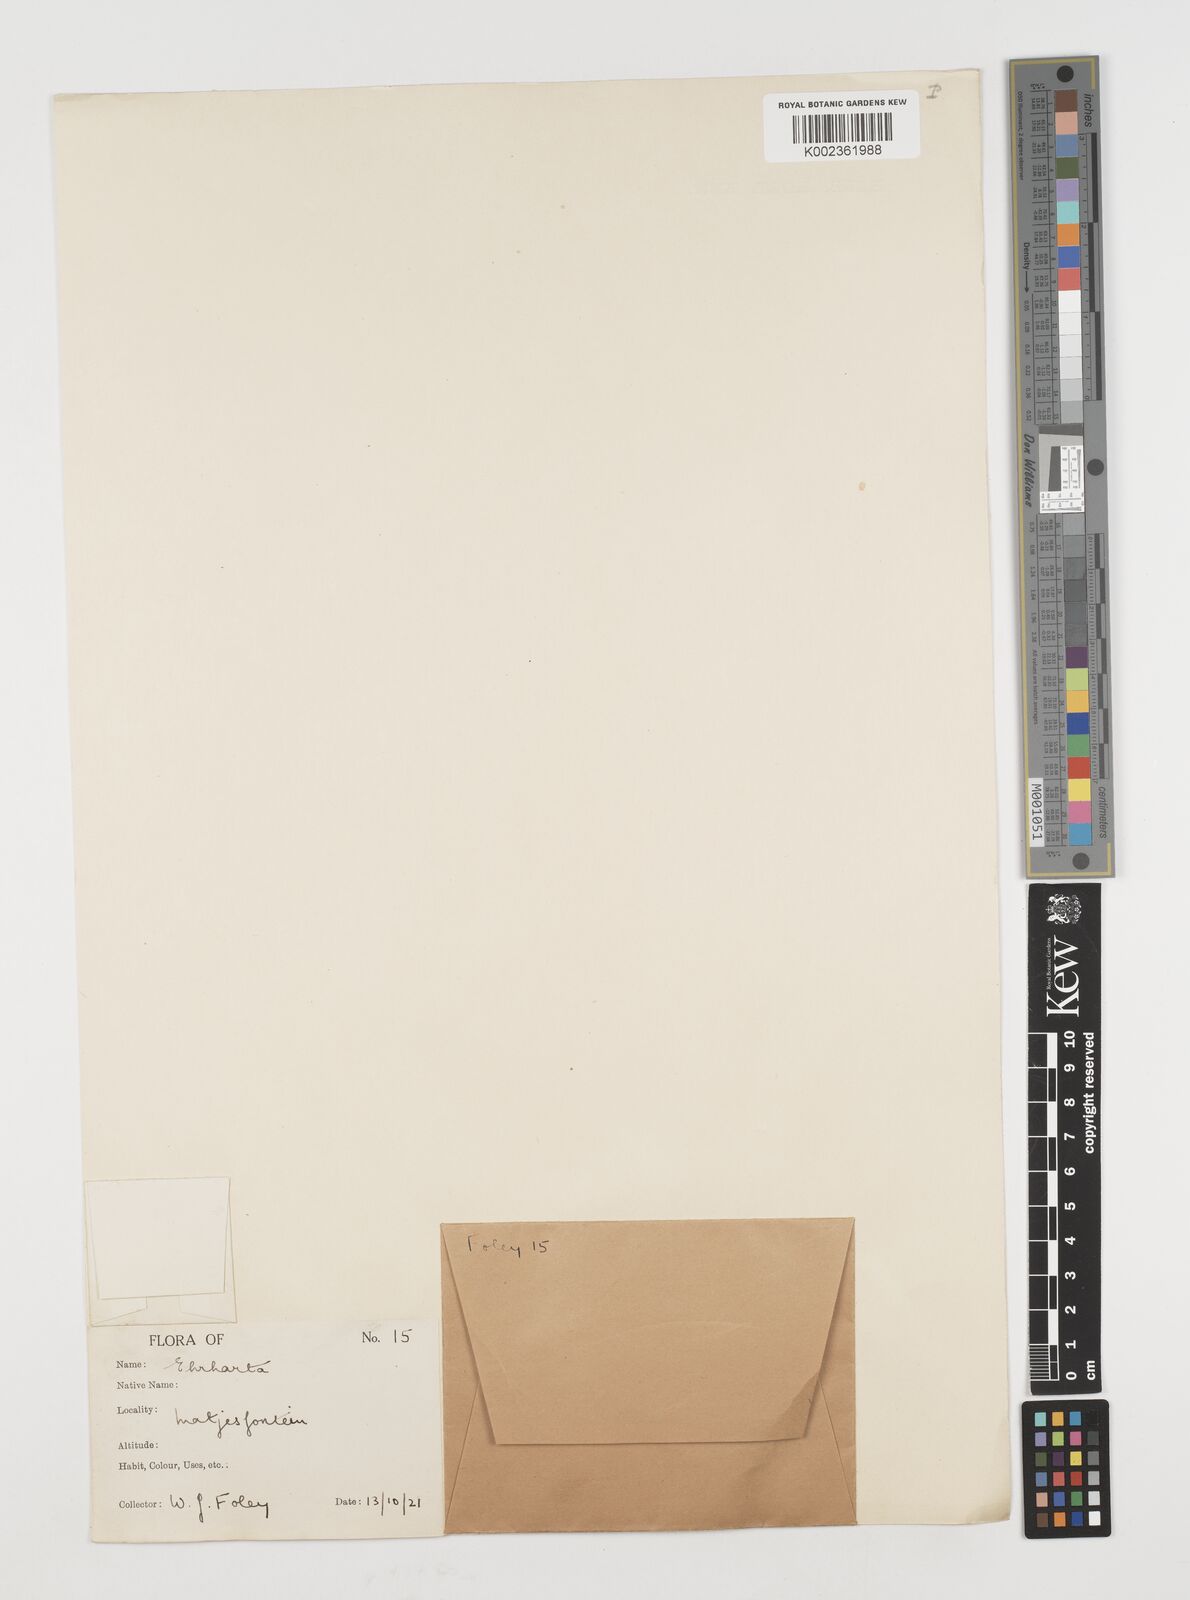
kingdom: Plantae
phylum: Tracheophyta
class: Liliopsida
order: Poales
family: Poaceae
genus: Ehrharta
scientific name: Ehrharta calycina
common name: Perennial veldtgrass
